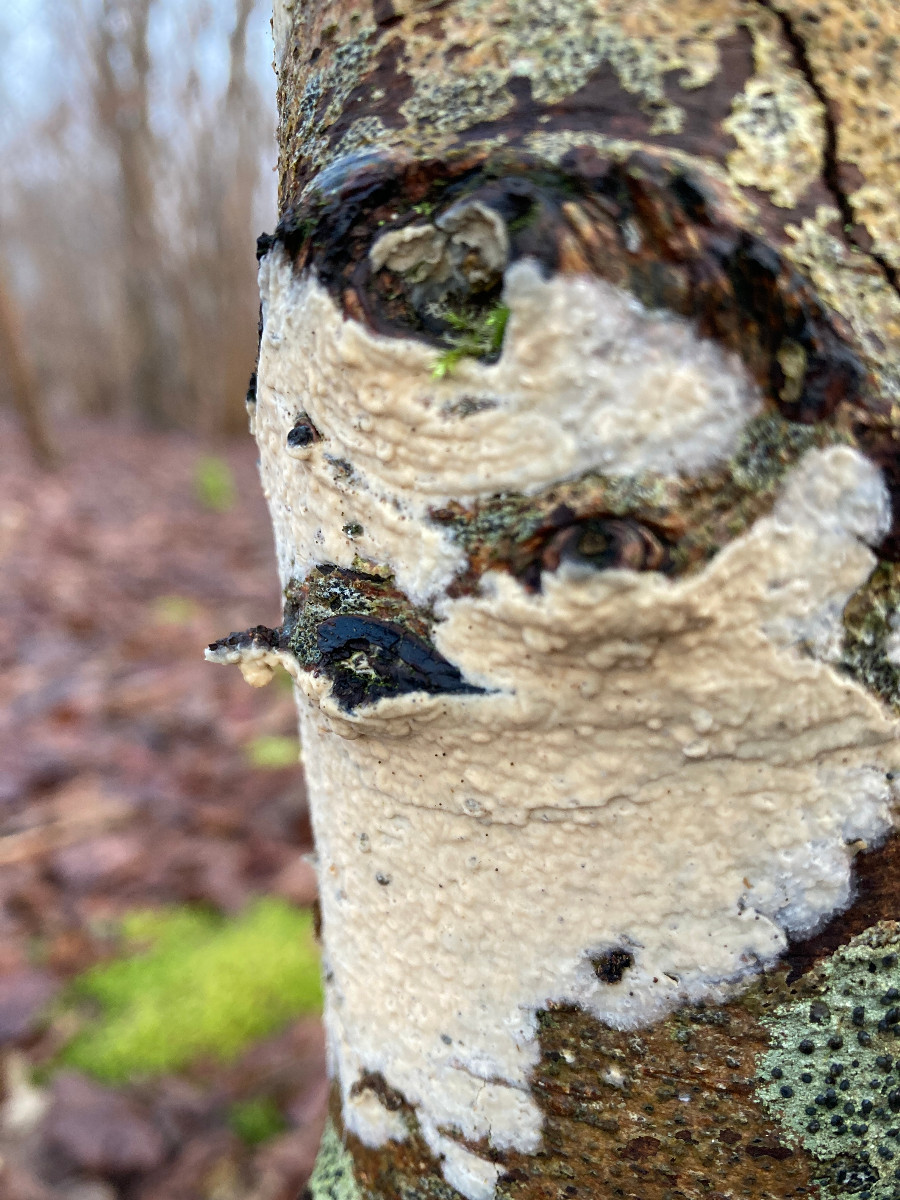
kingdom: Fungi
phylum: Basidiomycota
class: Agaricomycetes
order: Agaricales
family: Physalacriaceae
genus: Cylindrobasidium
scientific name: Cylindrobasidium evolvens
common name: sprækkehinde
